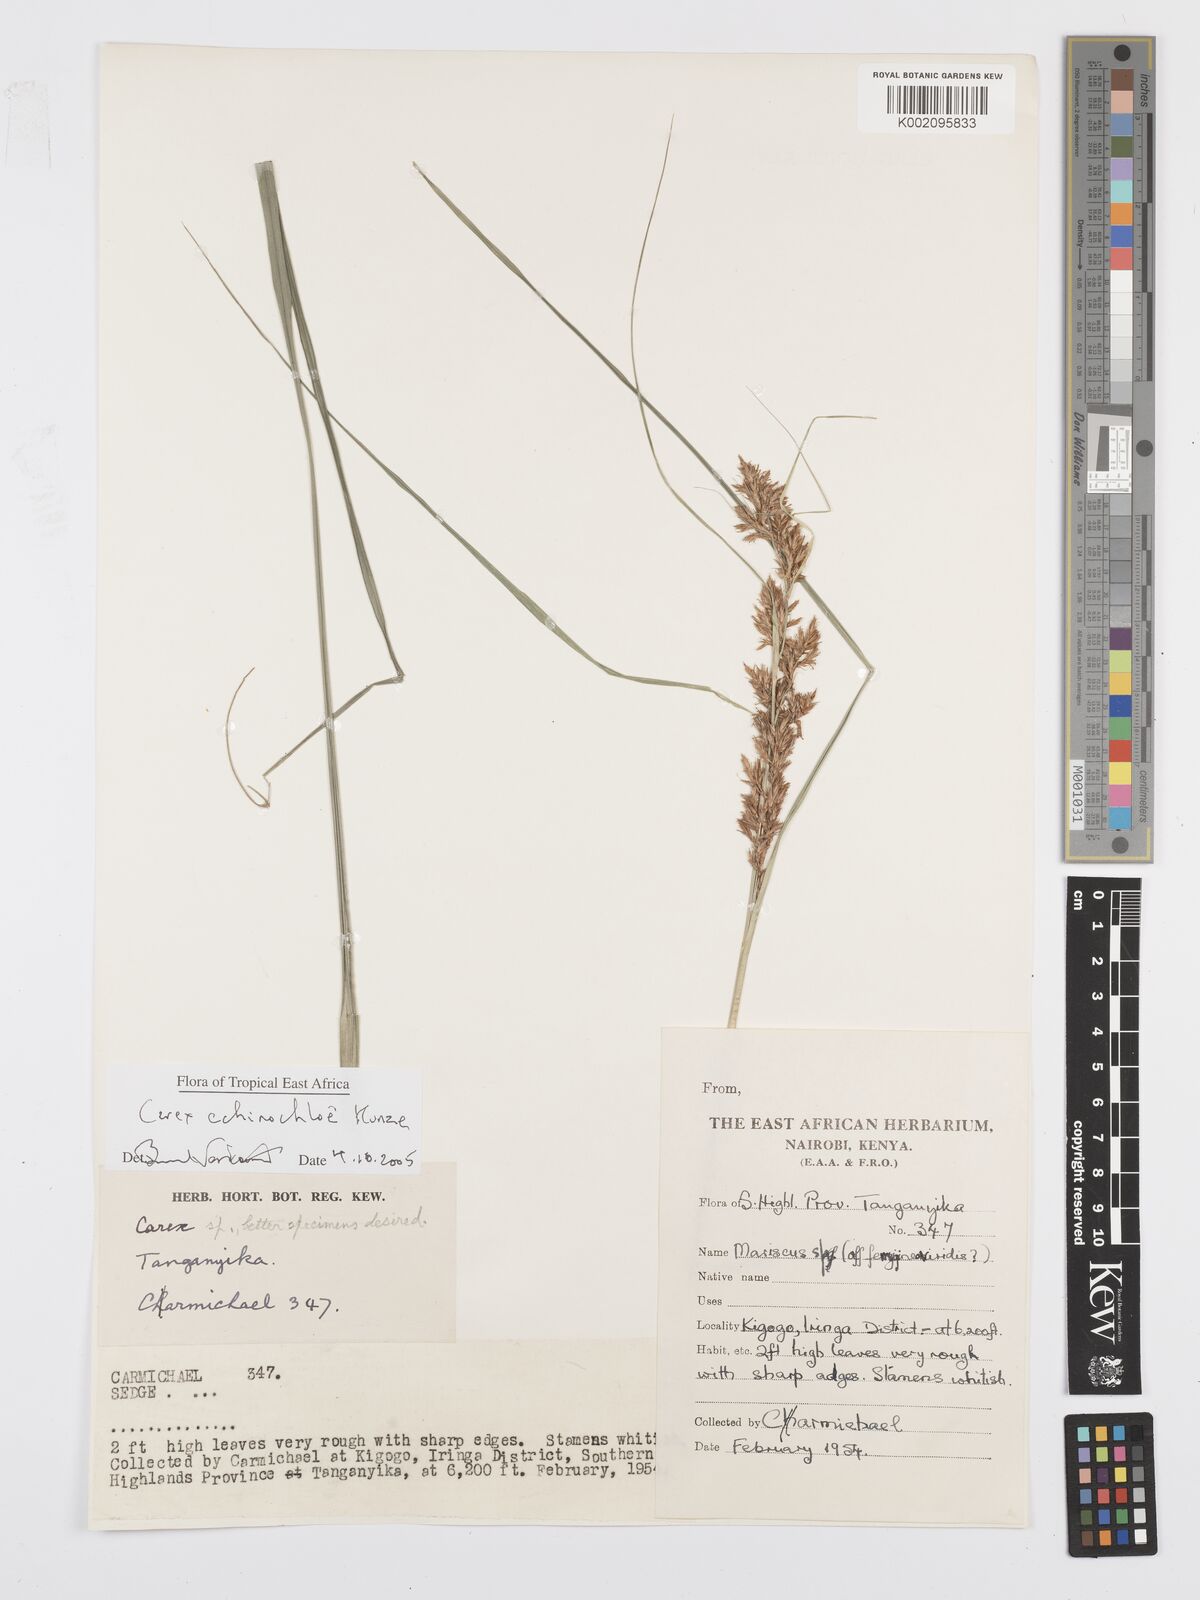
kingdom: Plantae
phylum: Tracheophyta
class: Liliopsida
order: Poales
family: Cyperaceae
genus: Carex
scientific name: Carex echinochloe
